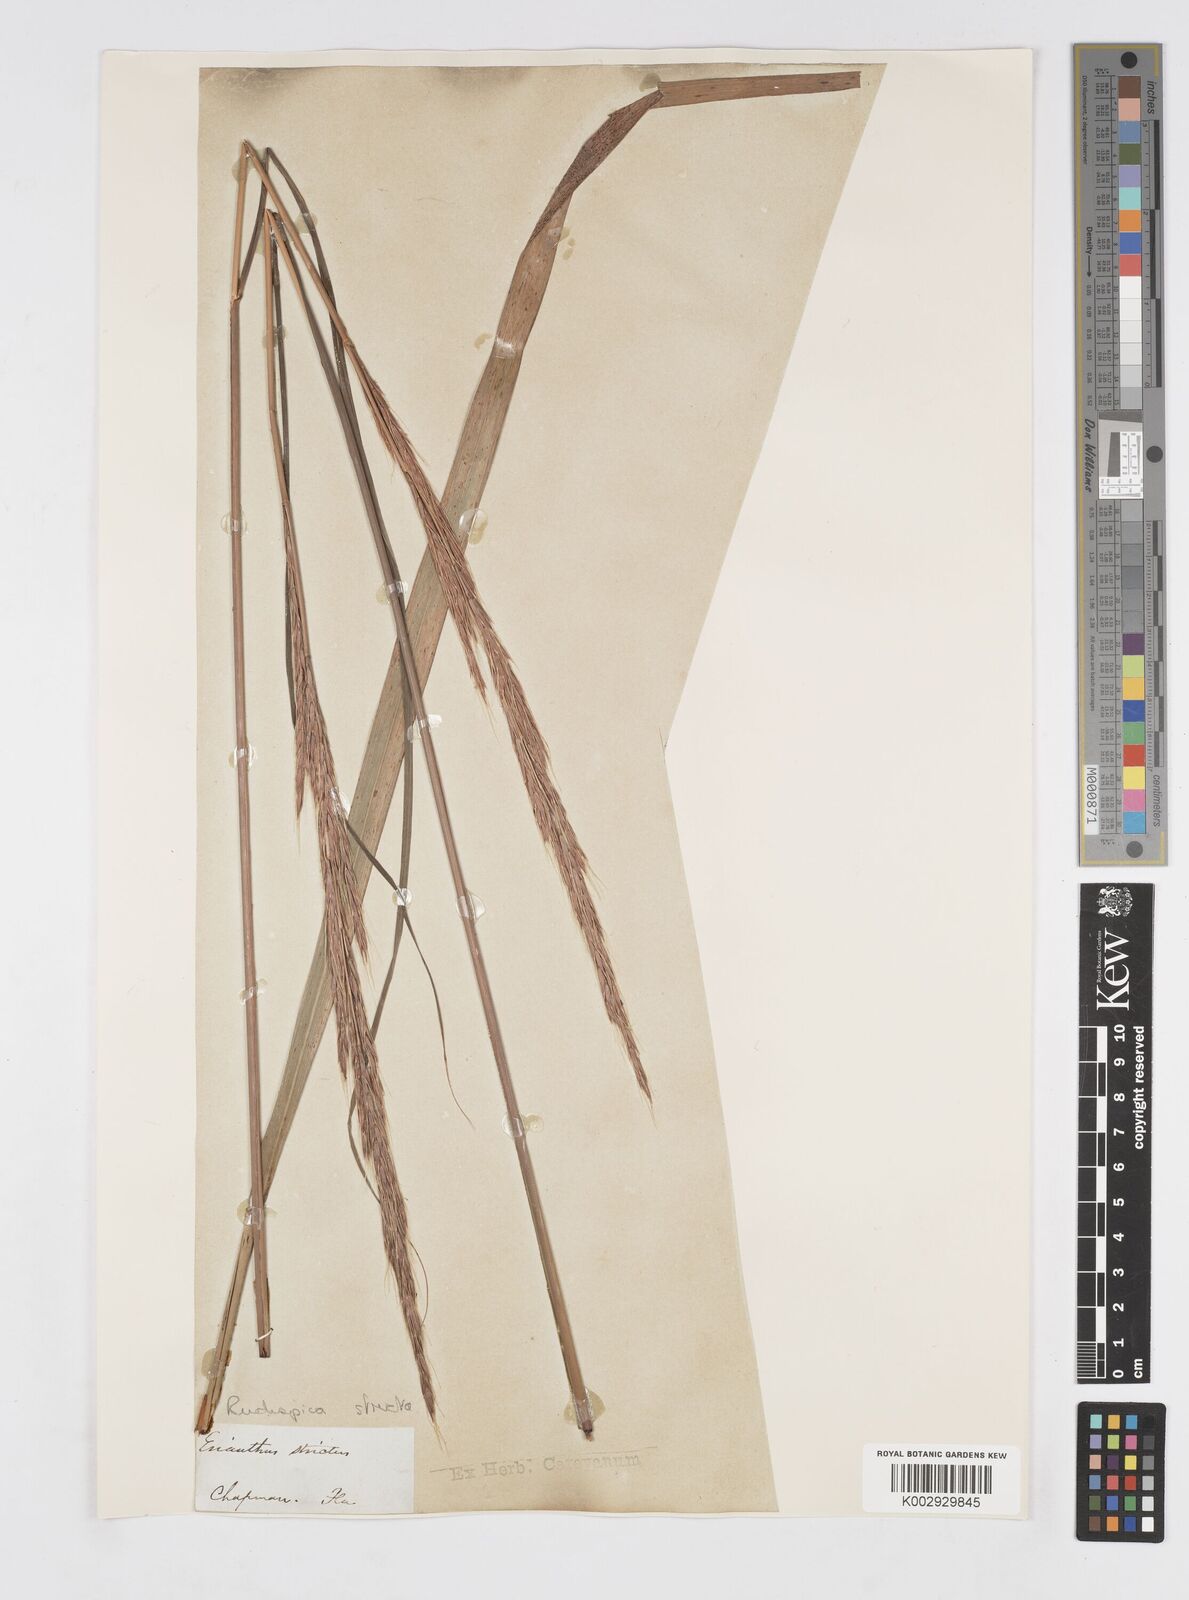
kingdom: Plantae
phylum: Tracheophyta
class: Liliopsida
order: Poales
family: Poaceae
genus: Erianthus
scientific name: Erianthus strictus
